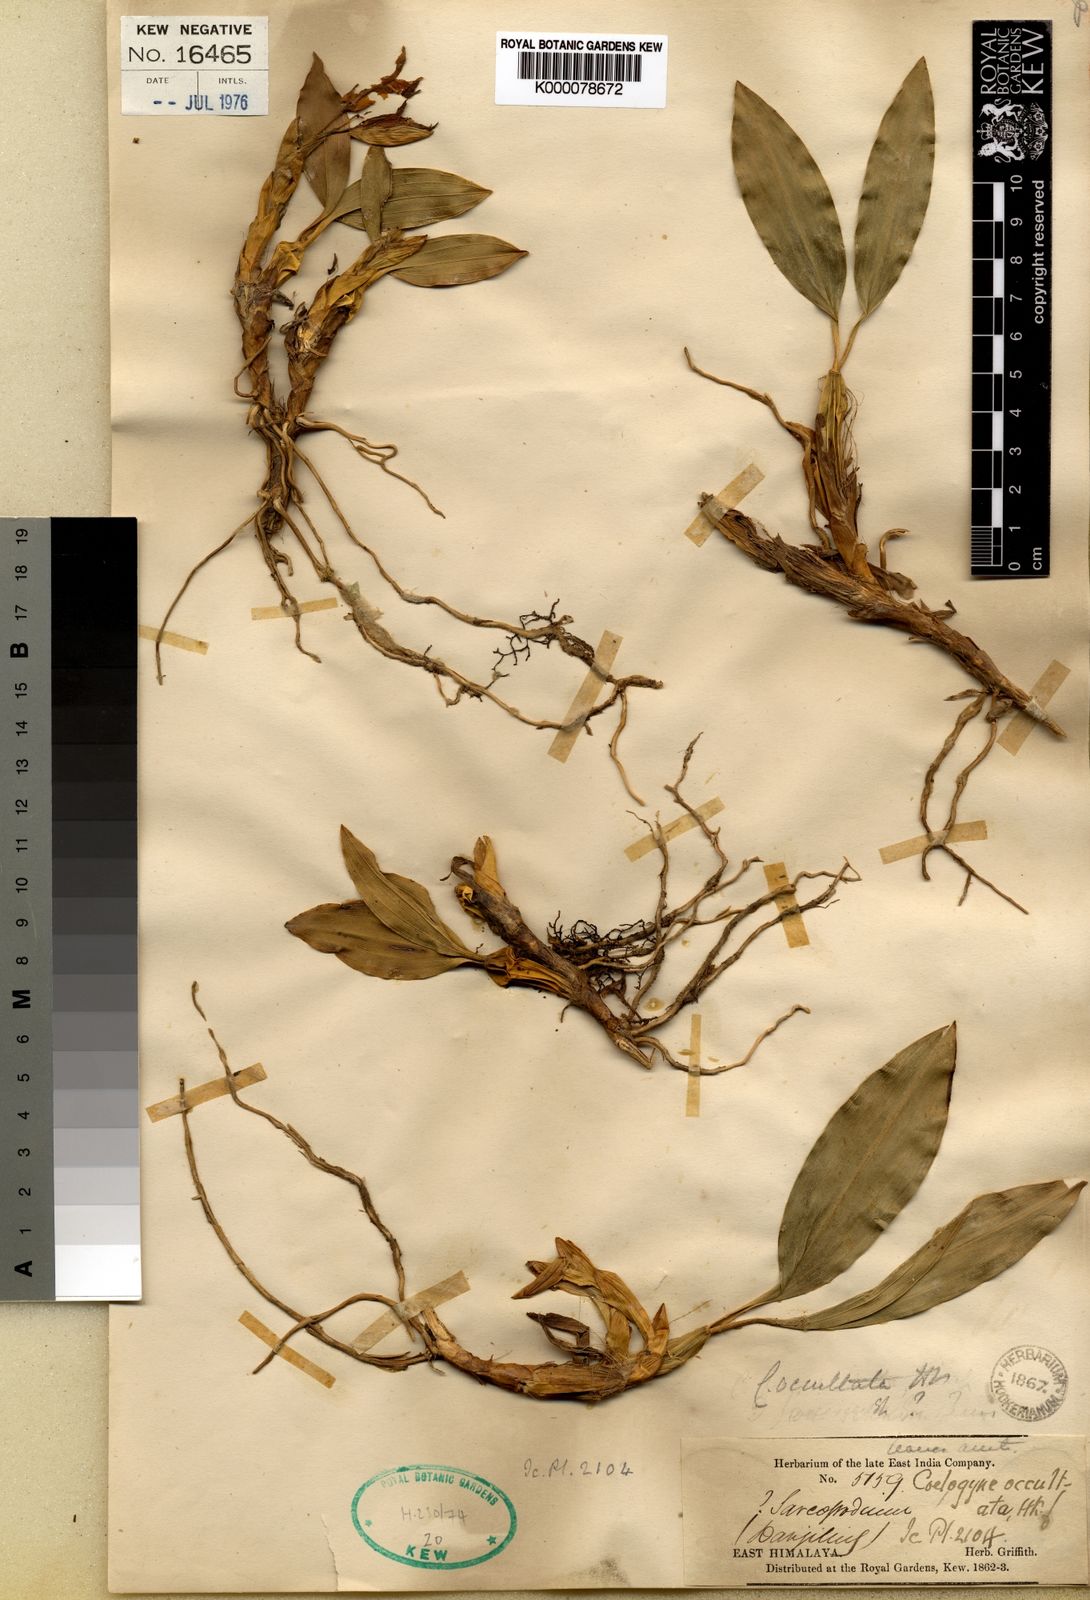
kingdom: Plantae
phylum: Tracheophyta
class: Liliopsida
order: Asparagales
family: Orchidaceae
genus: Coelogyne
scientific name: Coelogyne occultata
